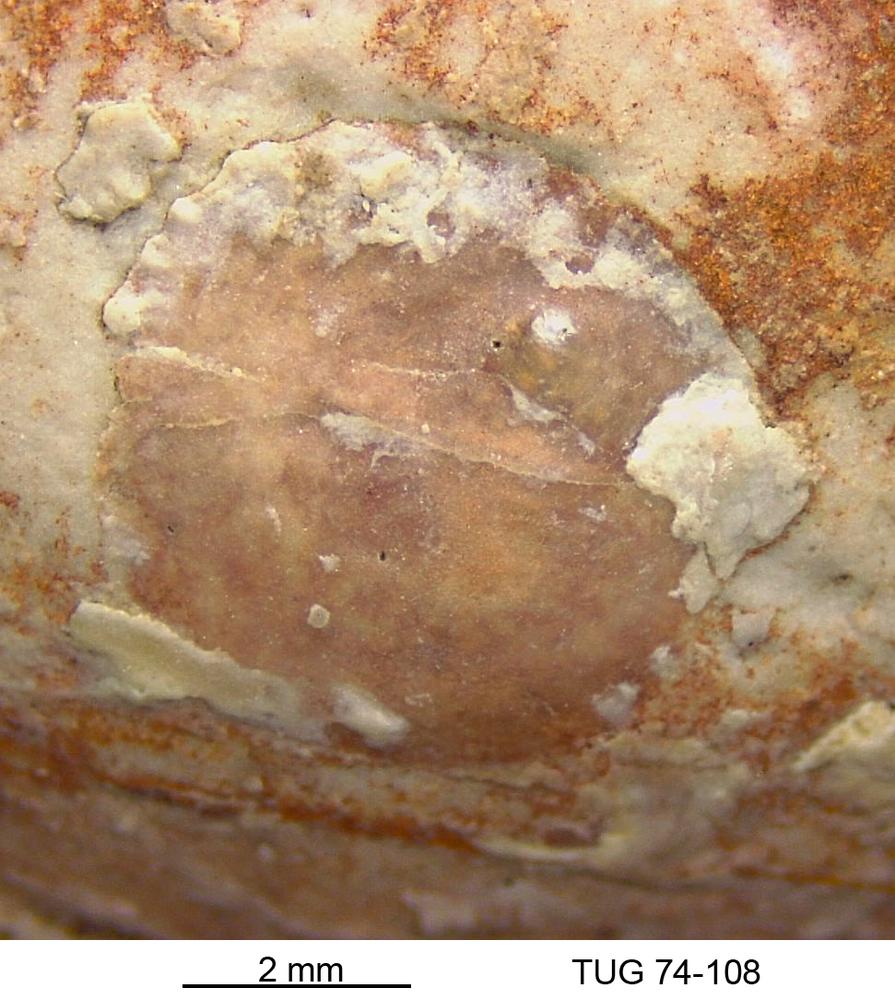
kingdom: Animalia
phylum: Brachiopoda
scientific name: Brachiopoda
